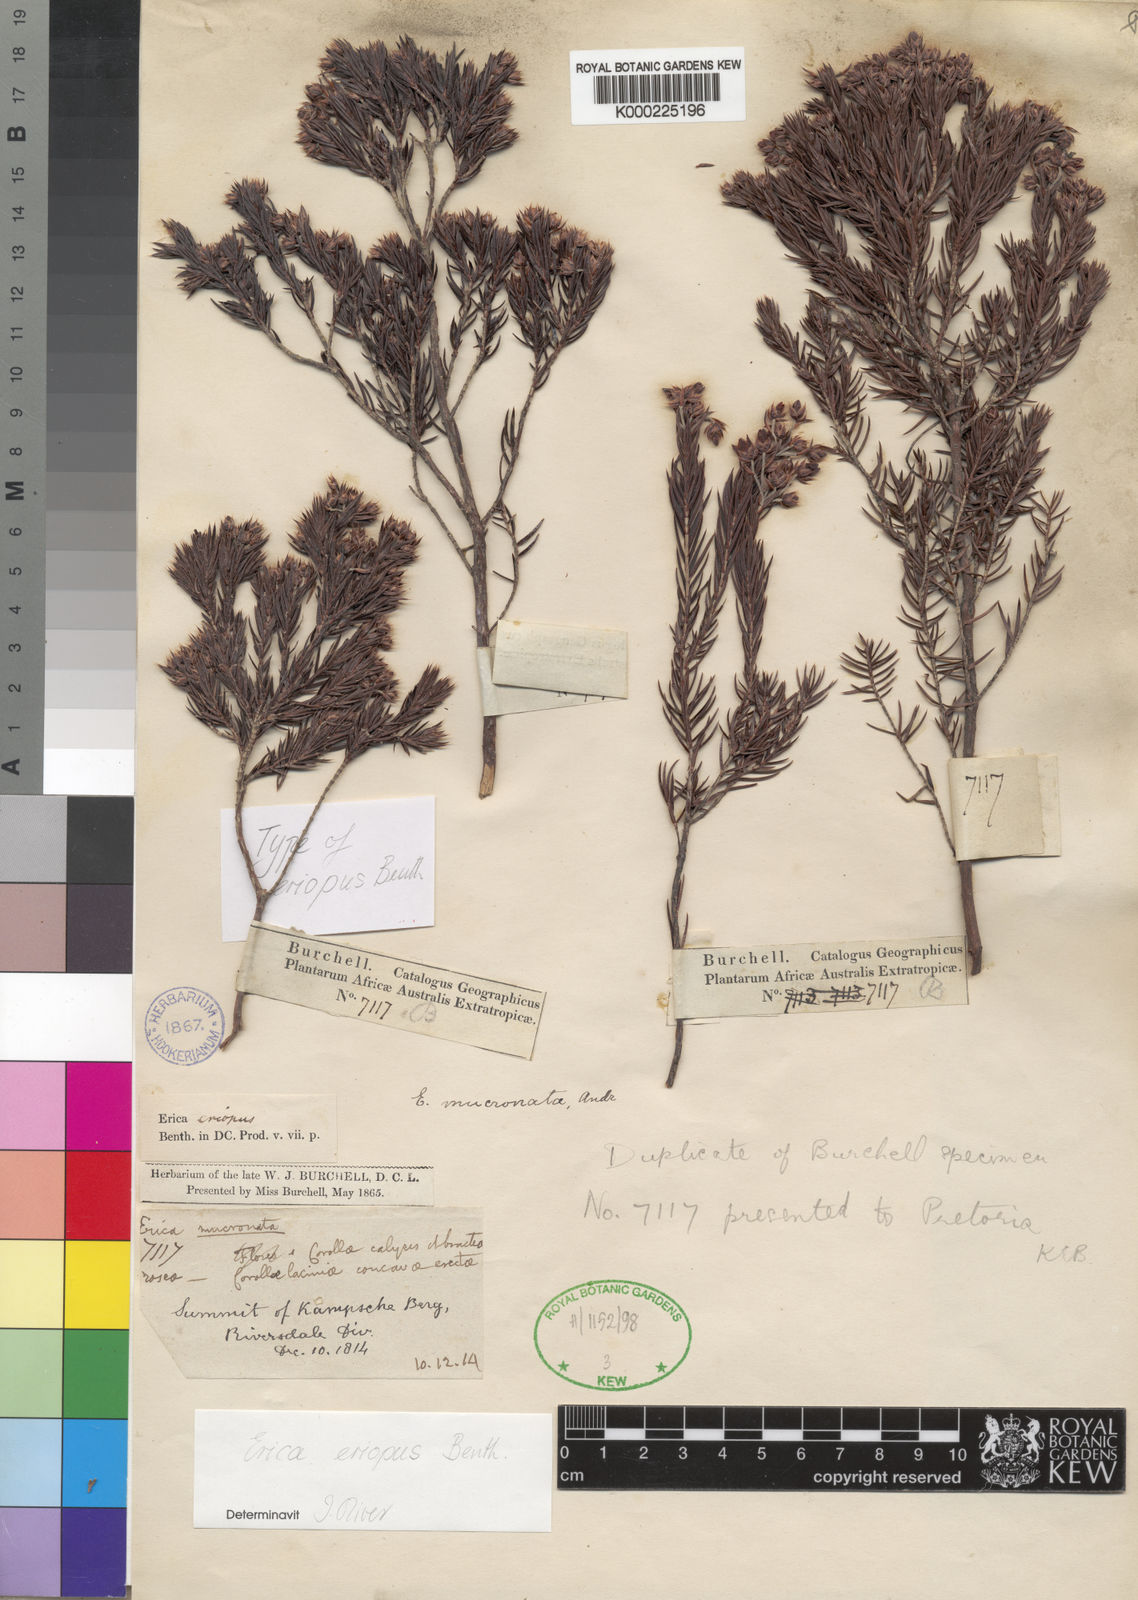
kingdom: Plantae
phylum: Tracheophyta
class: Magnoliopsida
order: Ericales
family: Ericaceae
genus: Erica
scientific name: Erica mucronata
